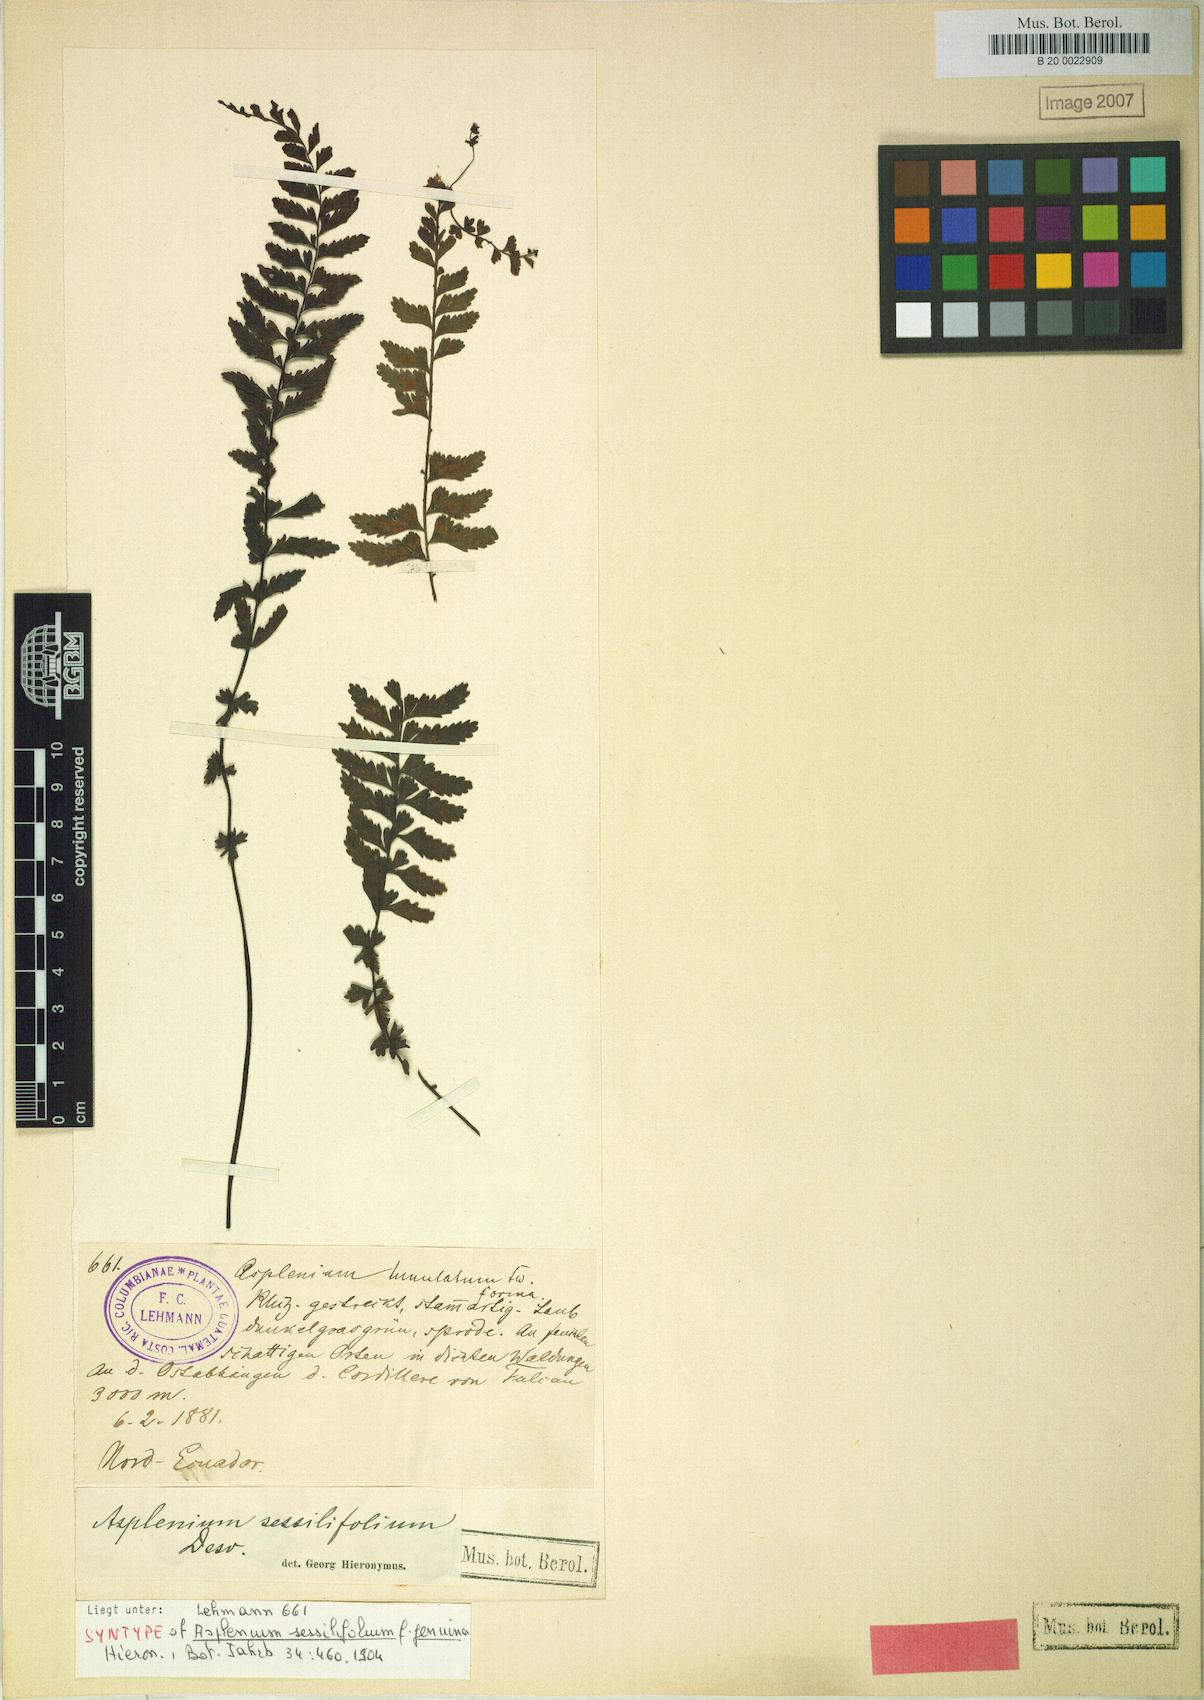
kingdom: Plantae
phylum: Tracheophyta
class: Polypodiopsida
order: Polypodiales
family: Aspleniaceae
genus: Asplenium
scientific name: Asplenium sessilifolium
